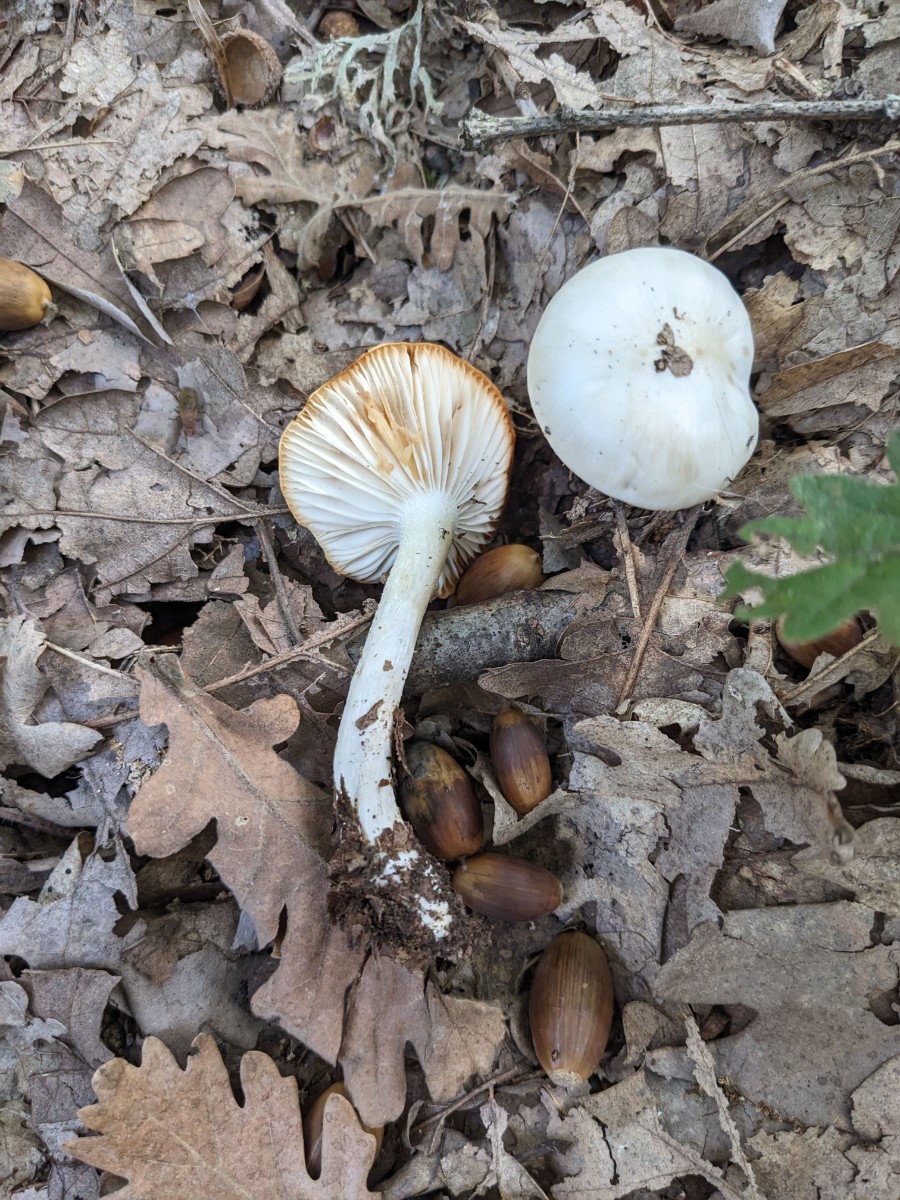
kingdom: Fungi
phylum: Basidiomycota
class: Agaricomycetes
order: Agaricales
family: Hygrophoraceae
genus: Hygrophorus
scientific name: Hygrophorus cossus
